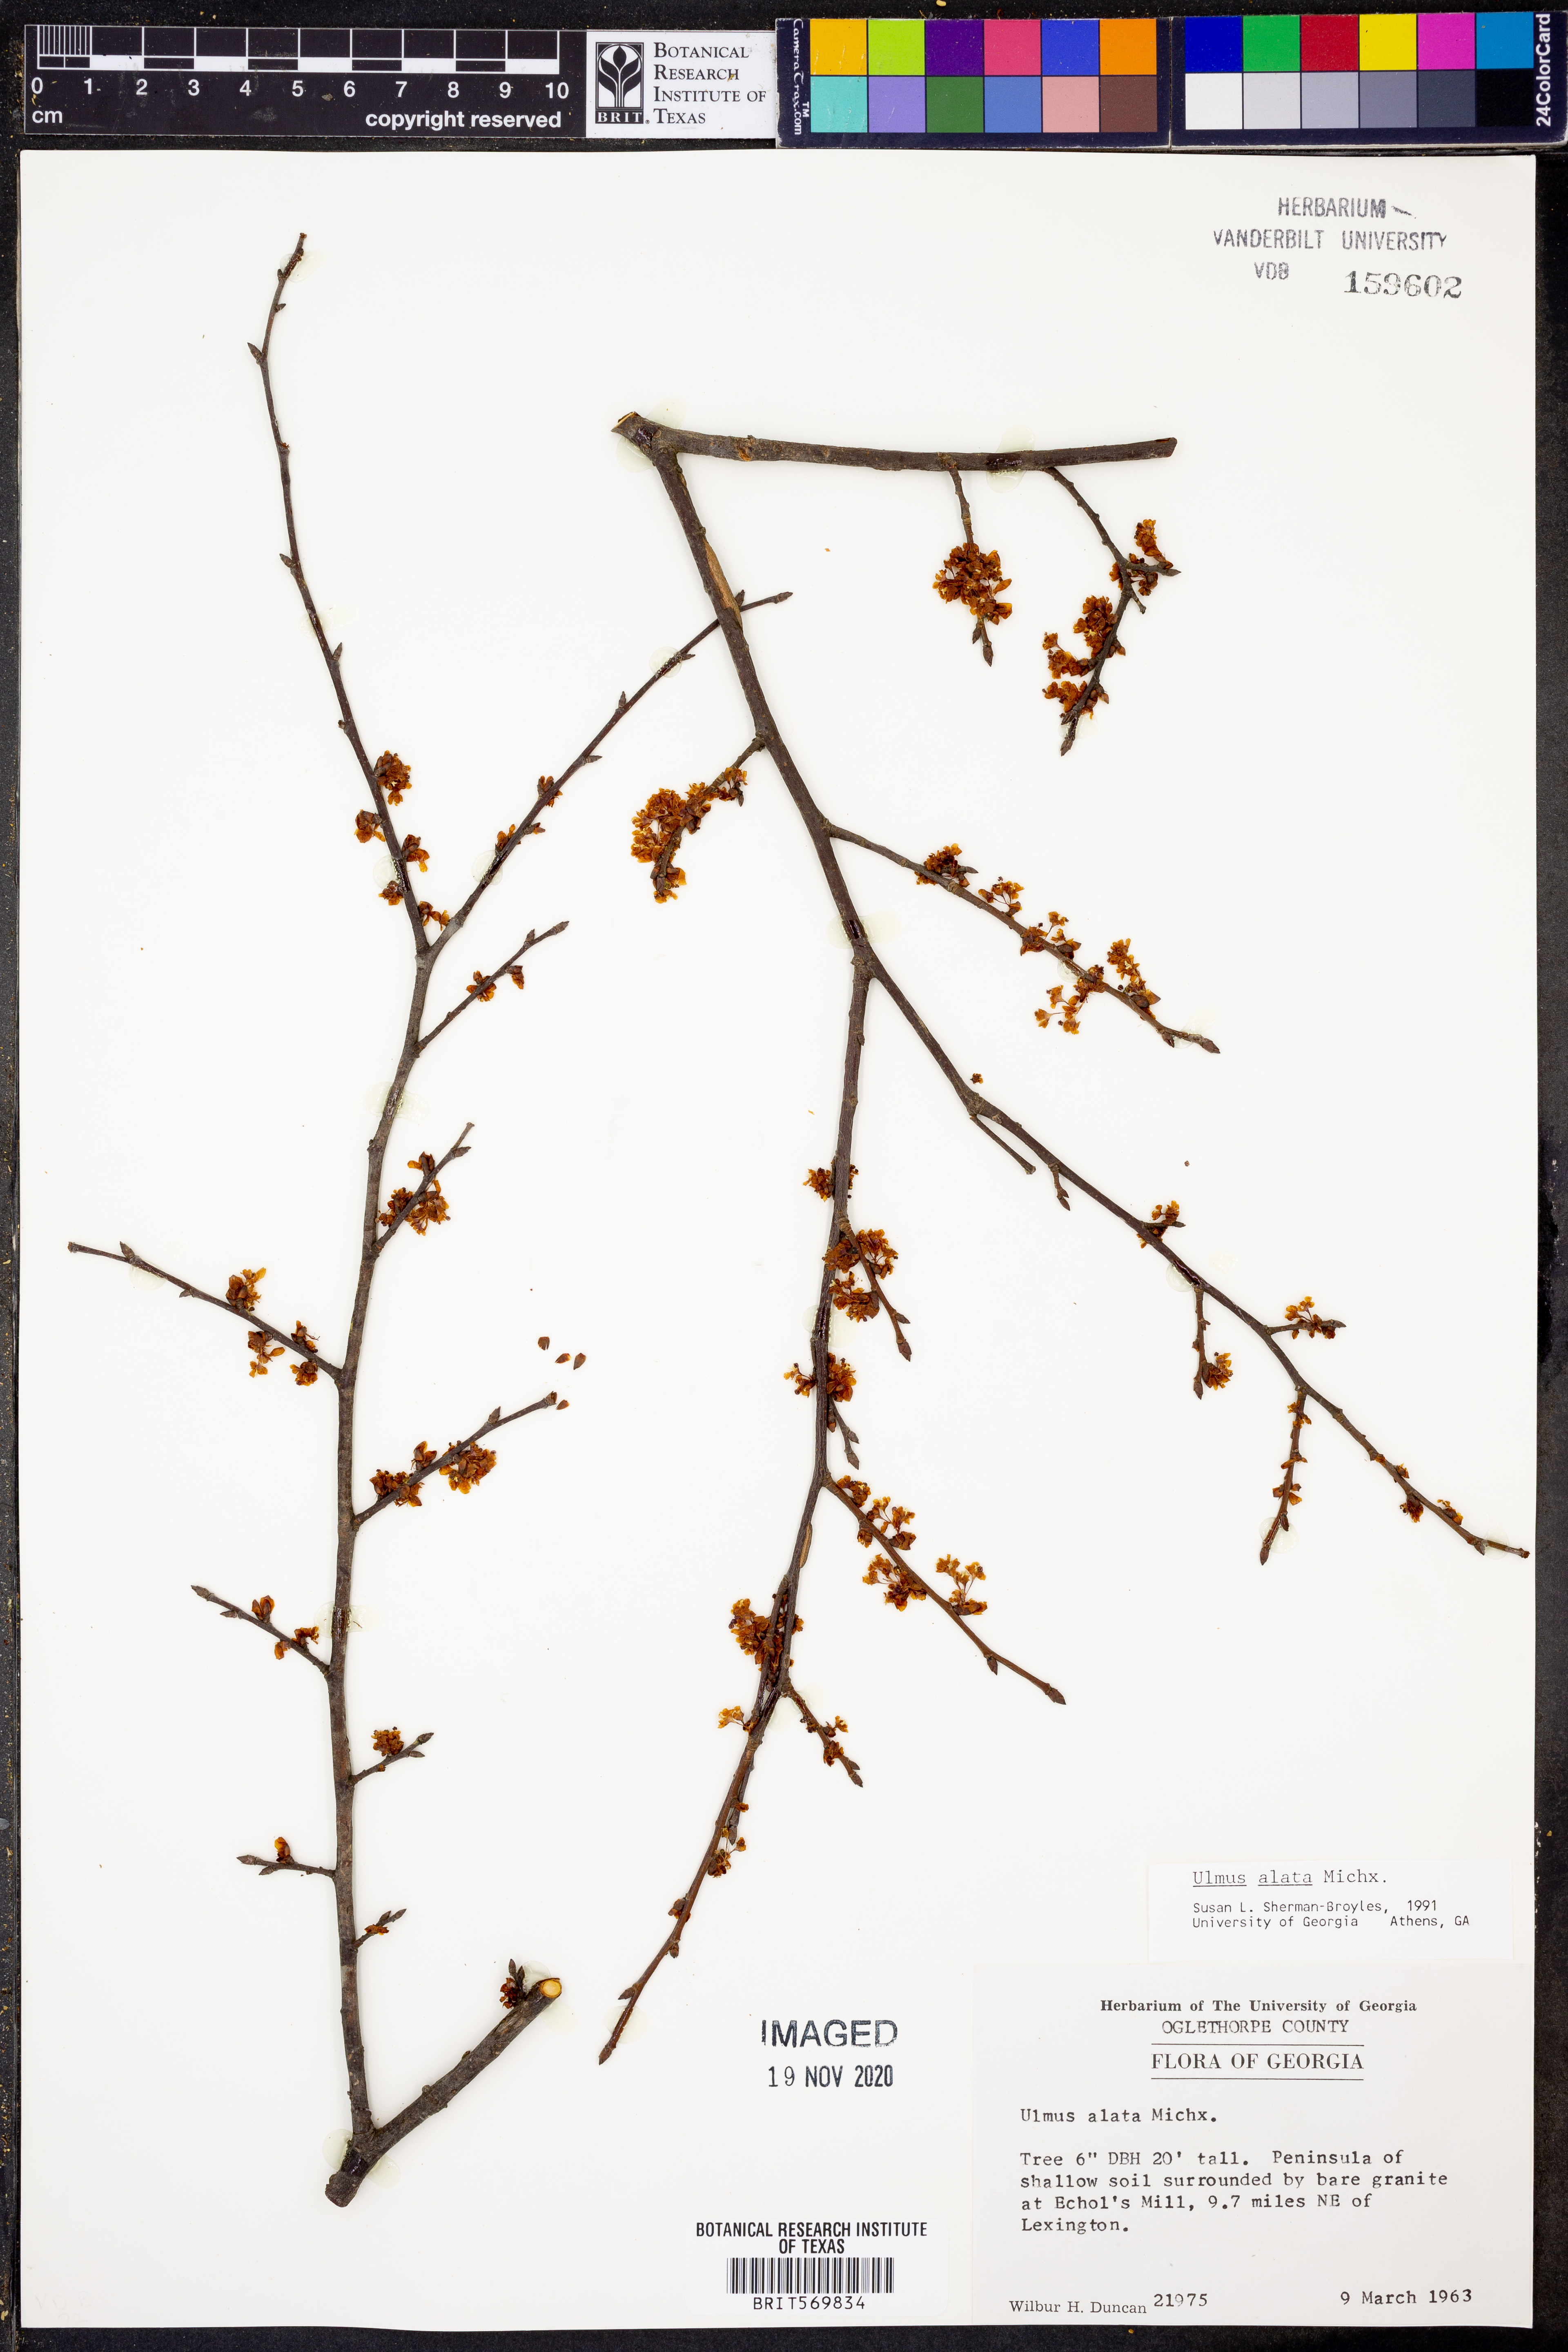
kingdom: Plantae
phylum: Tracheophyta
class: Magnoliopsida
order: Rosales
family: Ulmaceae
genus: Ulmus
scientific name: Ulmus alata
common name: Winged elm
